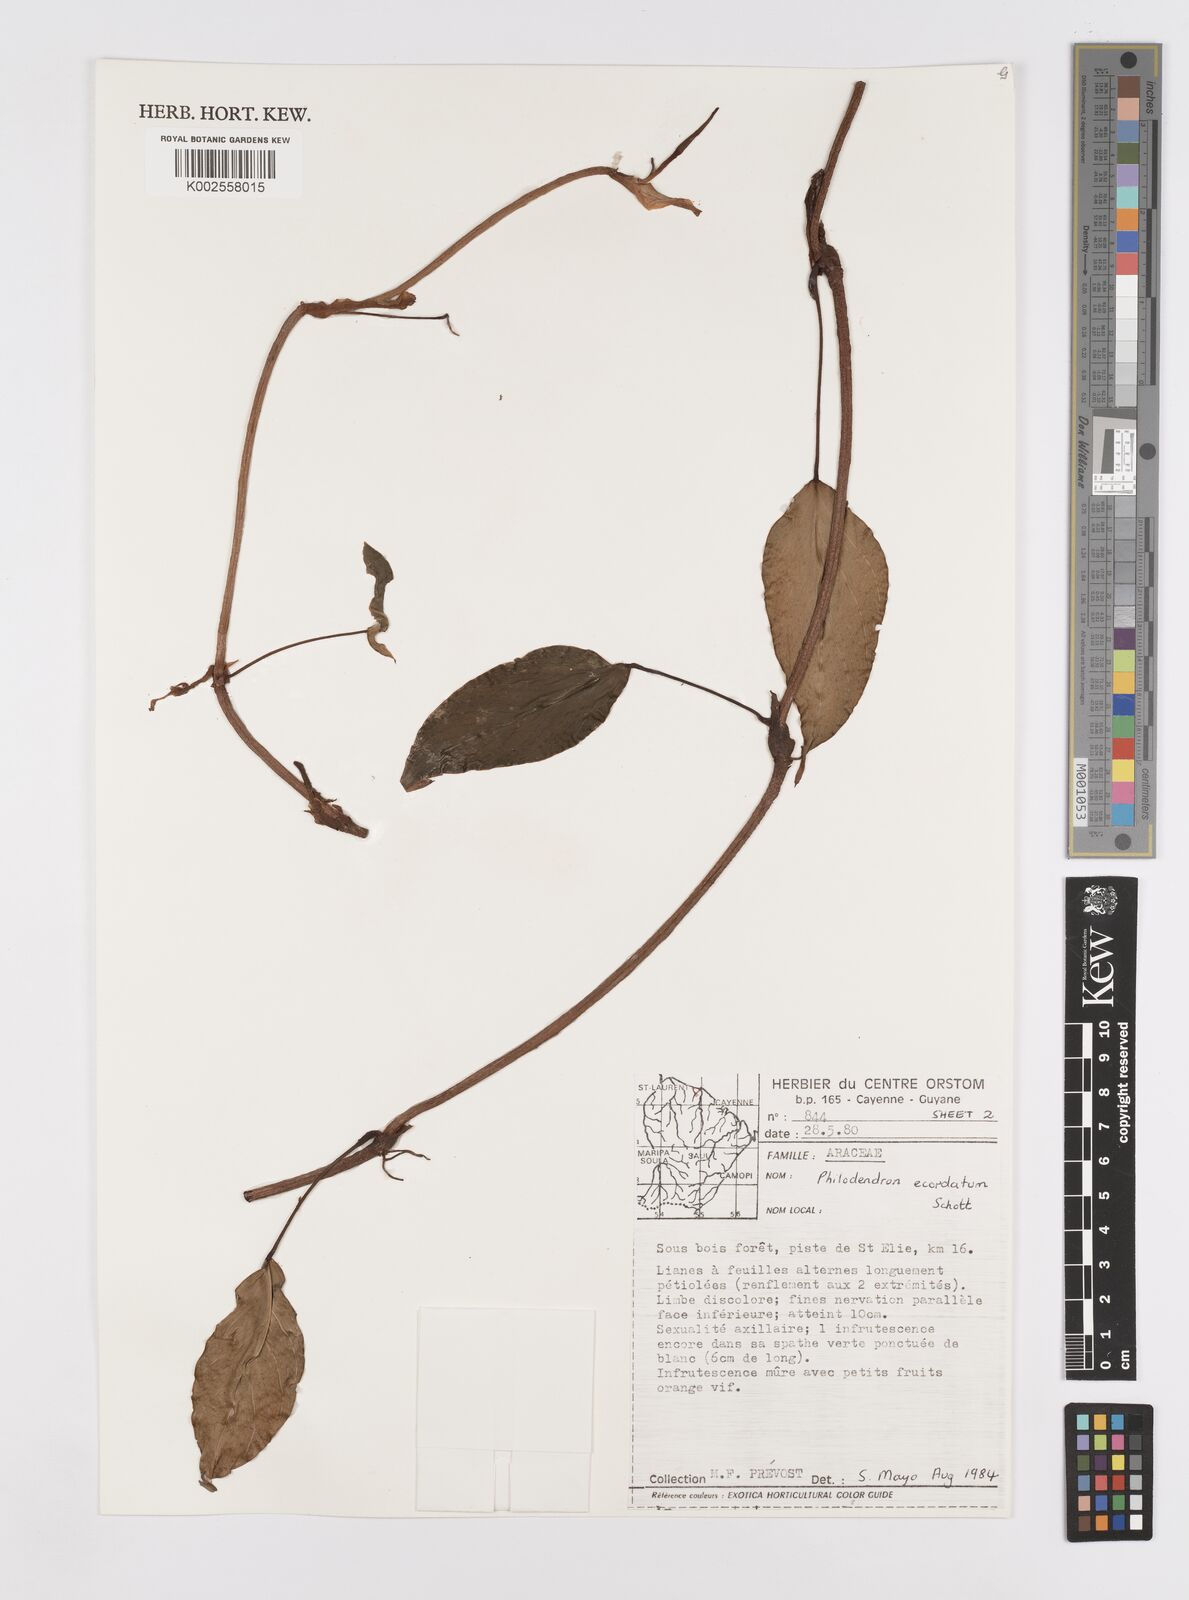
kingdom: Plantae
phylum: Tracheophyta
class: Liliopsida
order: Alismatales
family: Araceae
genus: Philodendron
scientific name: Philodendron ecordatum
